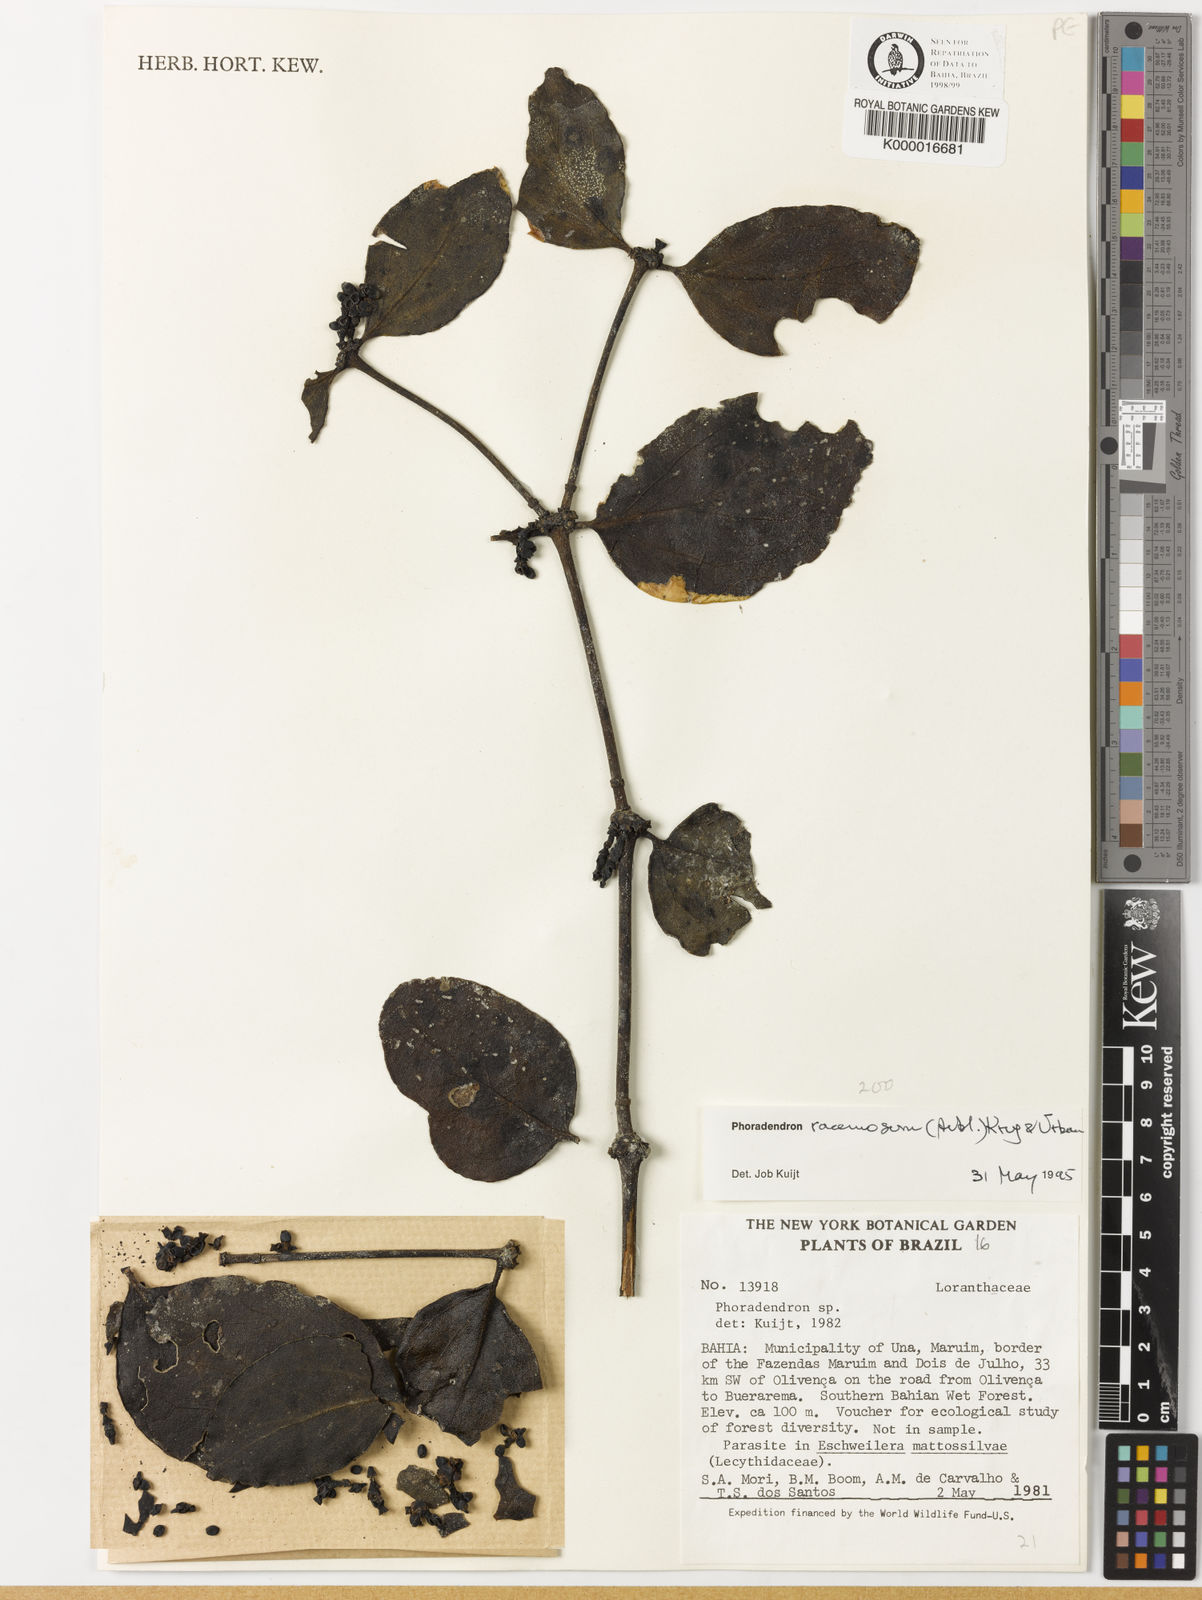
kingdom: Plantae
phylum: Tracheophyta
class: Magnoliopsida
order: Santalales
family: Viscaceae
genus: Phoradendron
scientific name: Phoradendron racemosum
